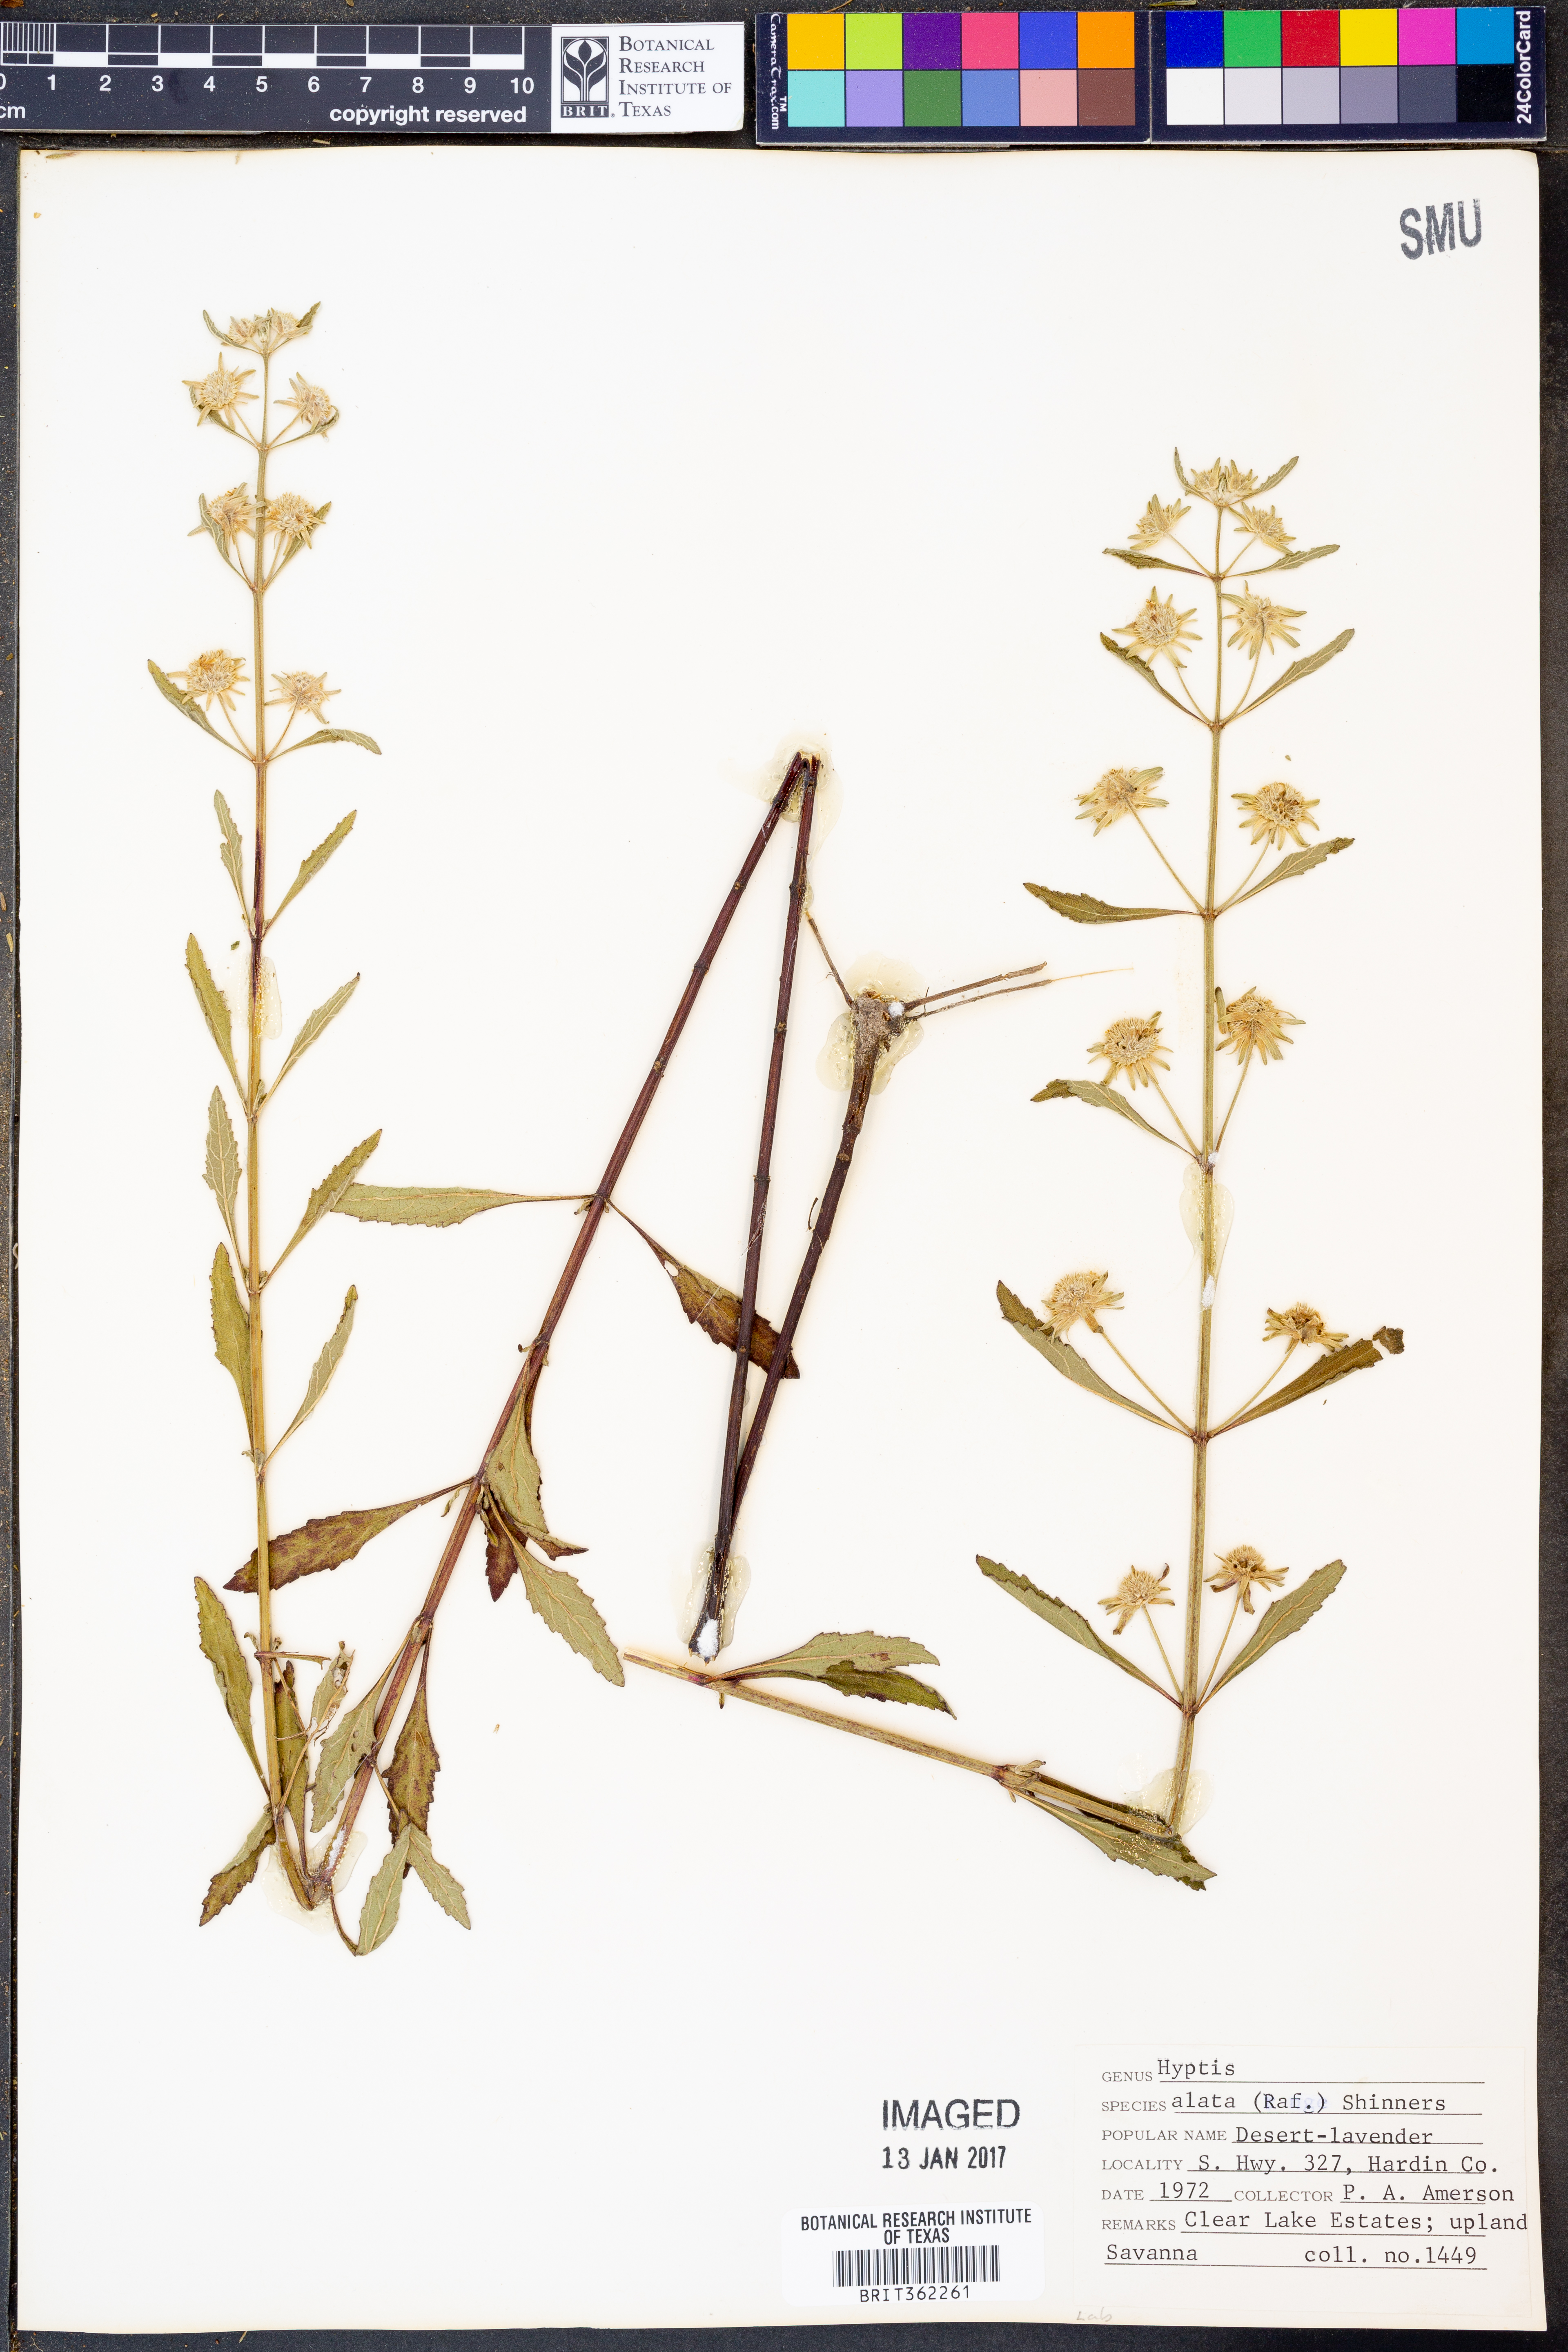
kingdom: Plantae
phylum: Tracheophyta
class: Magnoliopsida
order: Lamiales
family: Lamiaceae
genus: Hyptis
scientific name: Hyptis alata
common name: Cluster bush-mint
